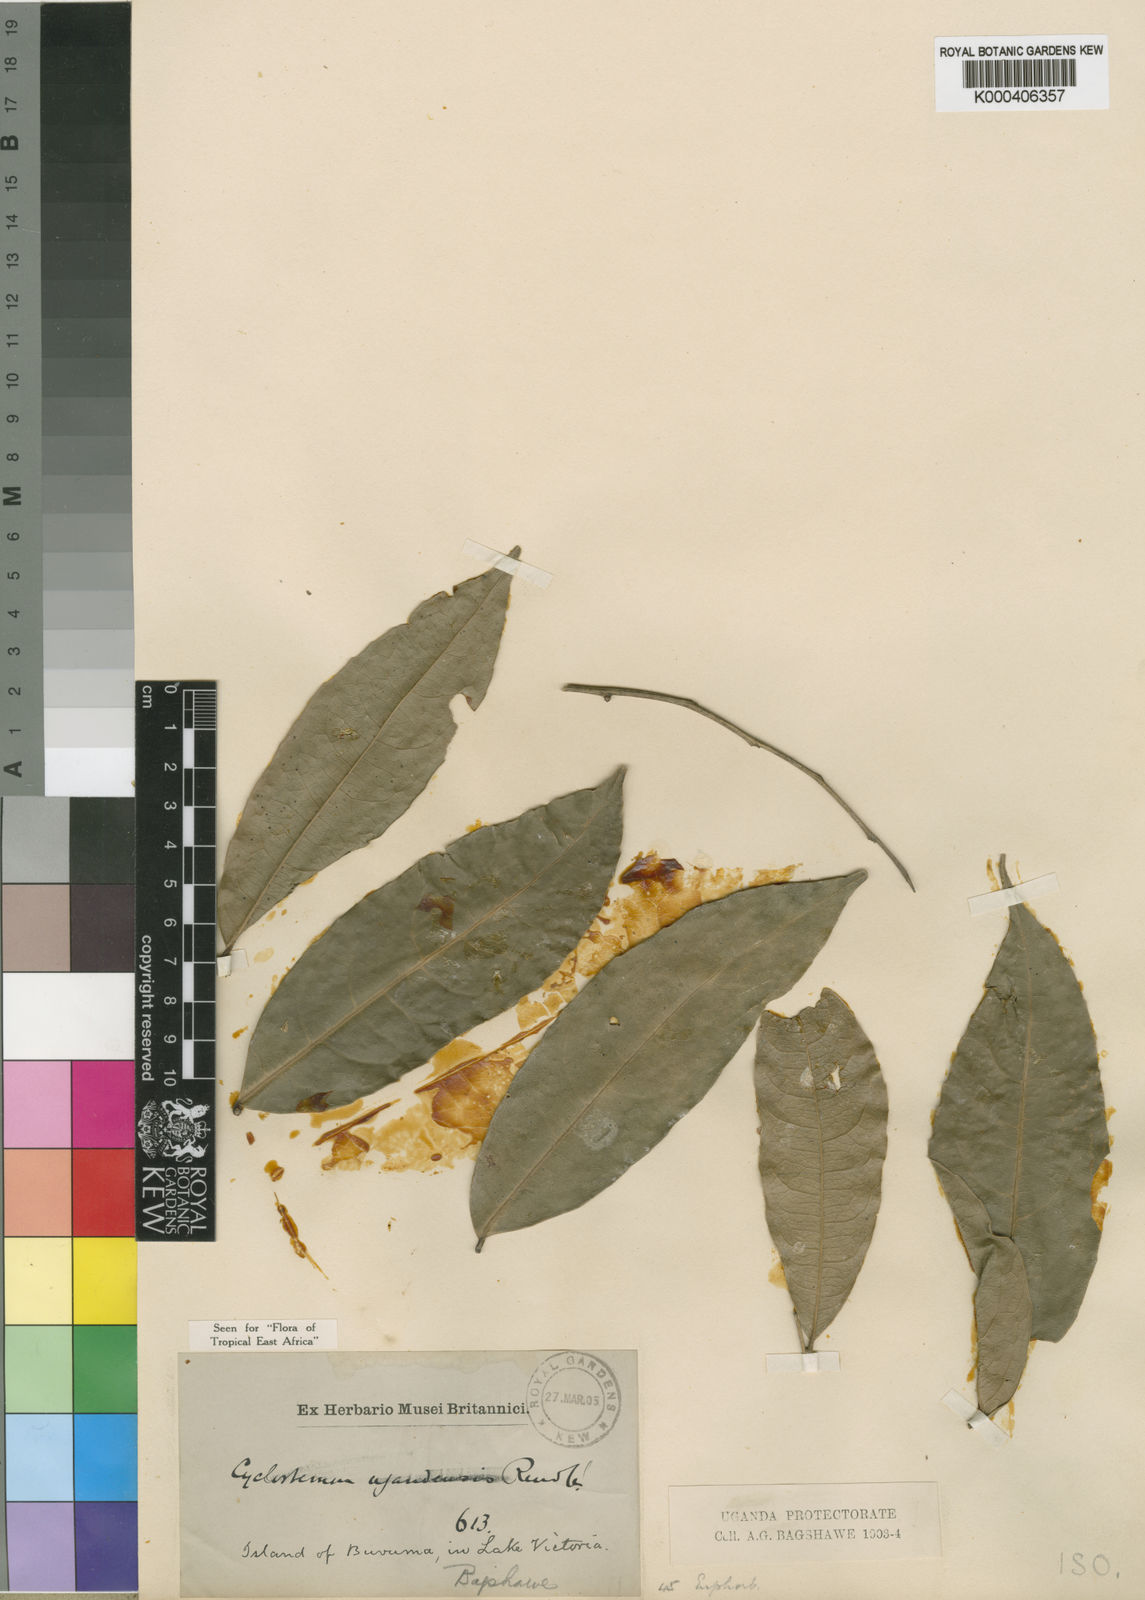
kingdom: Plantae
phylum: Tracheophyta
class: Magnoliopsida
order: Malpighiales
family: Putranjivaceae
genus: Drypetes
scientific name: Drypetes ugandensis
